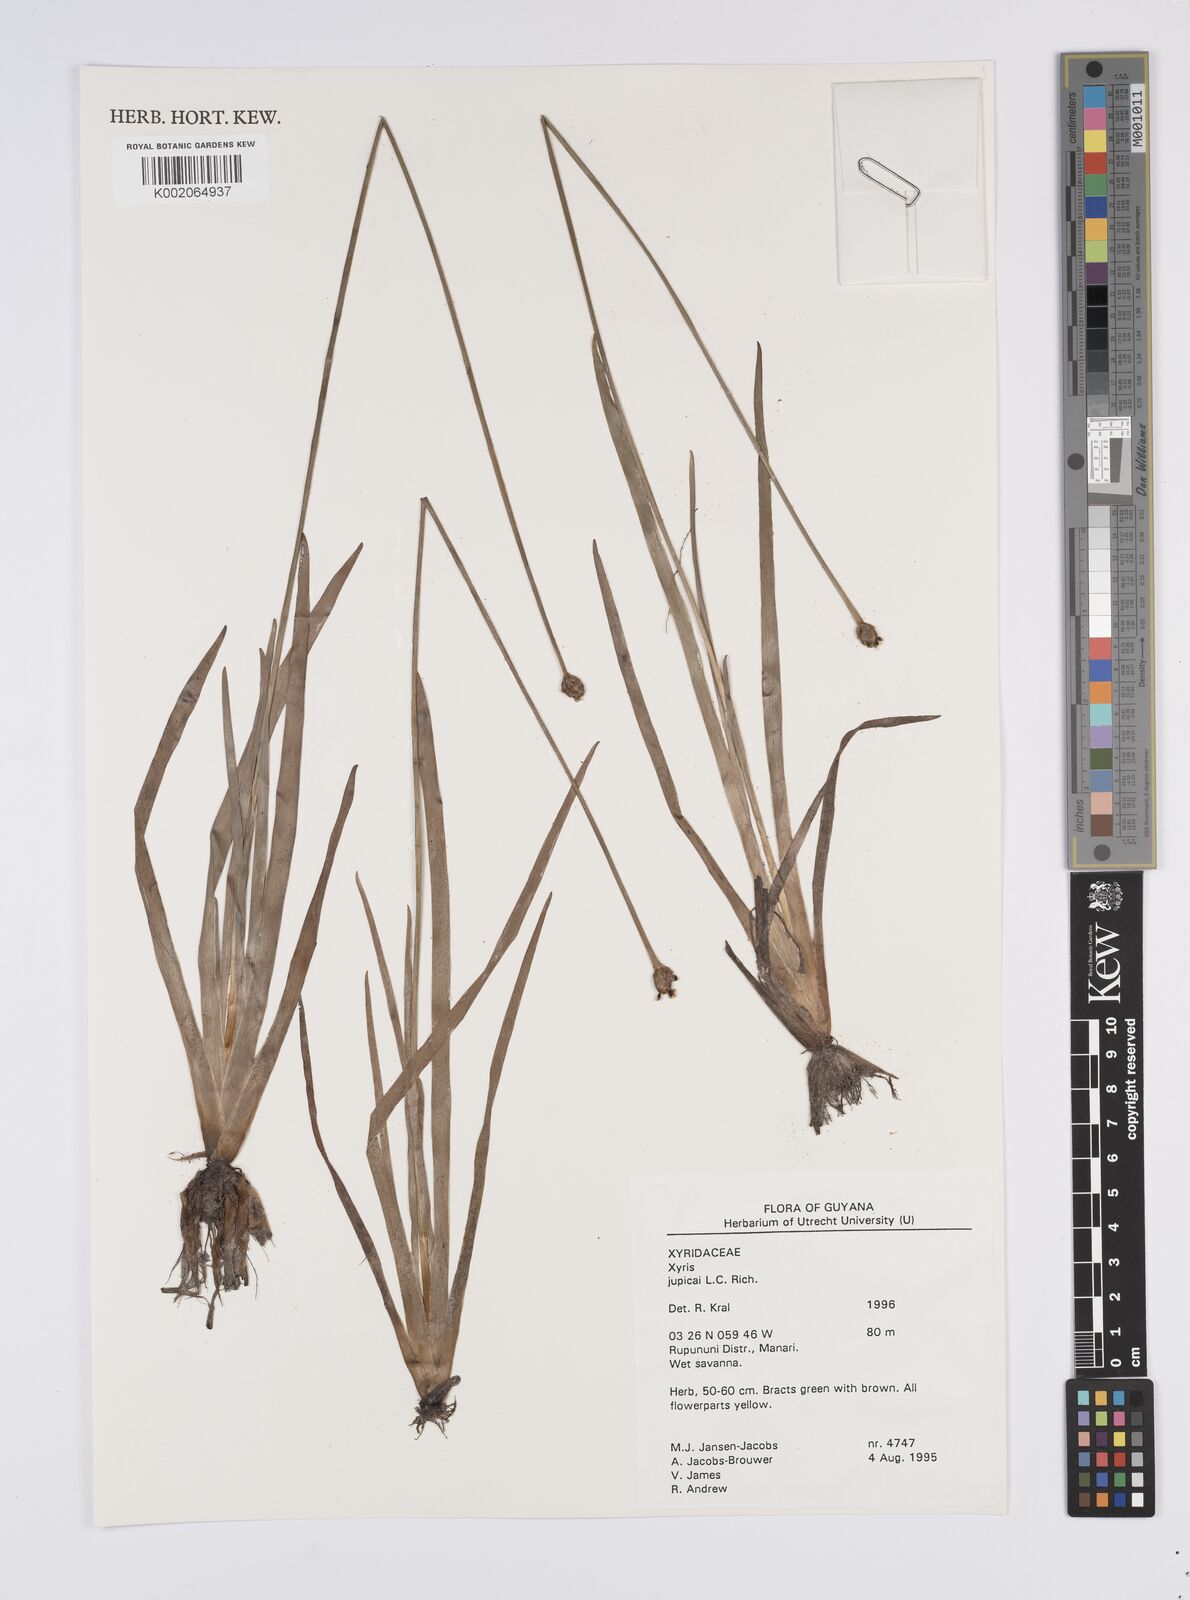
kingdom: Plantae
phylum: Tracheophyta
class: Liliopsida
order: Poales
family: Xyridaceae
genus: Xyris
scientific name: Xyris jupicai
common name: Richard's yelloweyed grass
